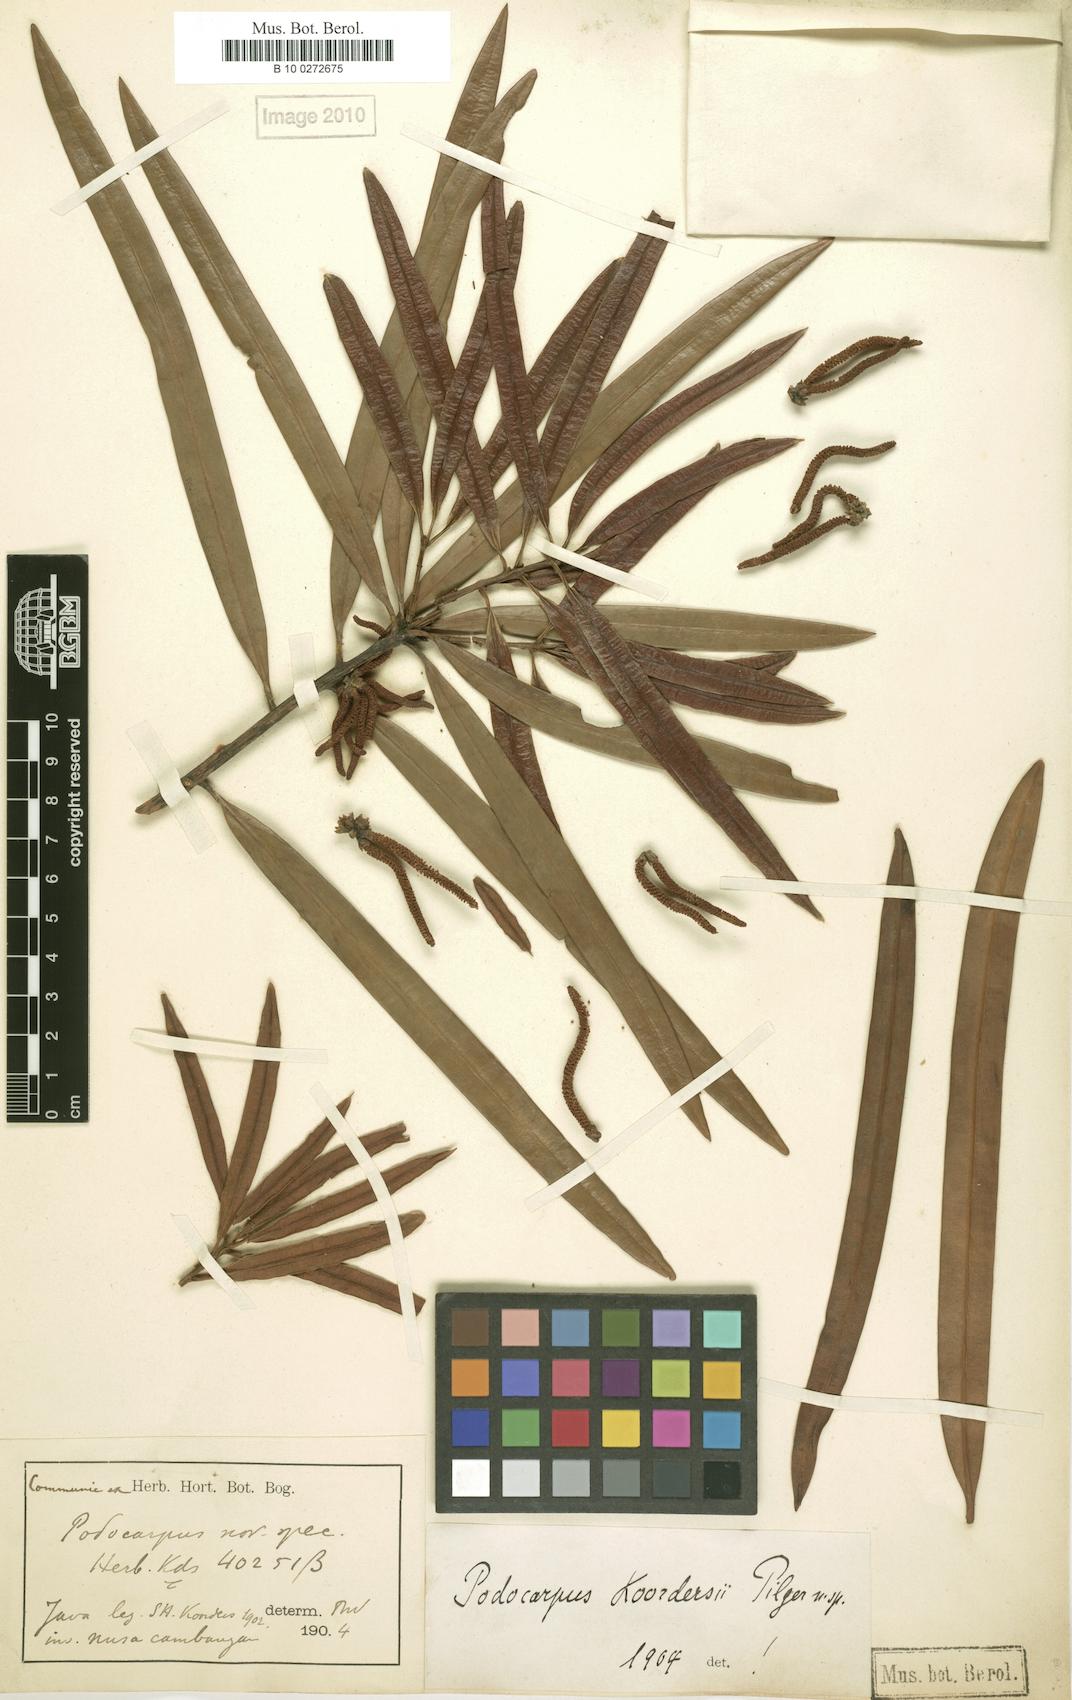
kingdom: Plantae
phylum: Tracheophyta
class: Pinopsida
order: Pinales
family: Podocarpaceae
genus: Podocarpus
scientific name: Podocarpus rumphii
